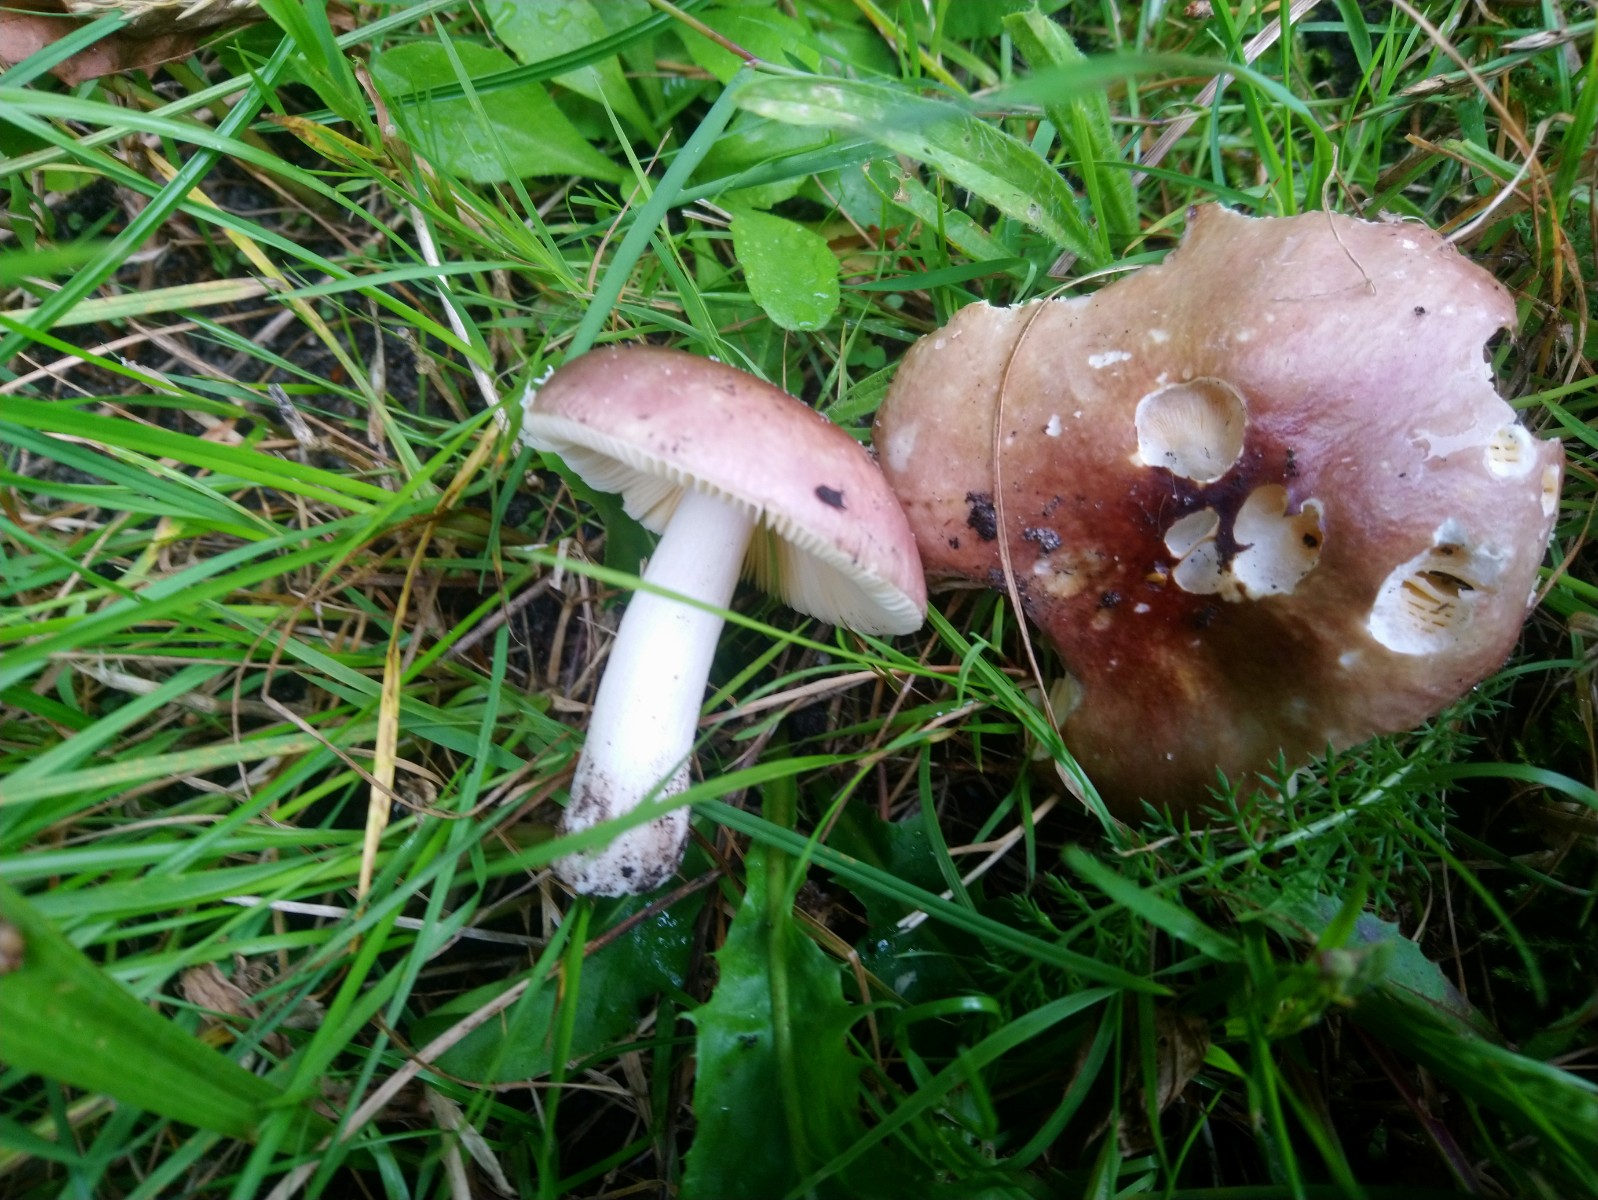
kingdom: Fungi
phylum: Basidiomycota
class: Agaricomycetes
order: Russulales
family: Russulaceae
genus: Russula
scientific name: Russula cessans
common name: fyrre-skørhat
